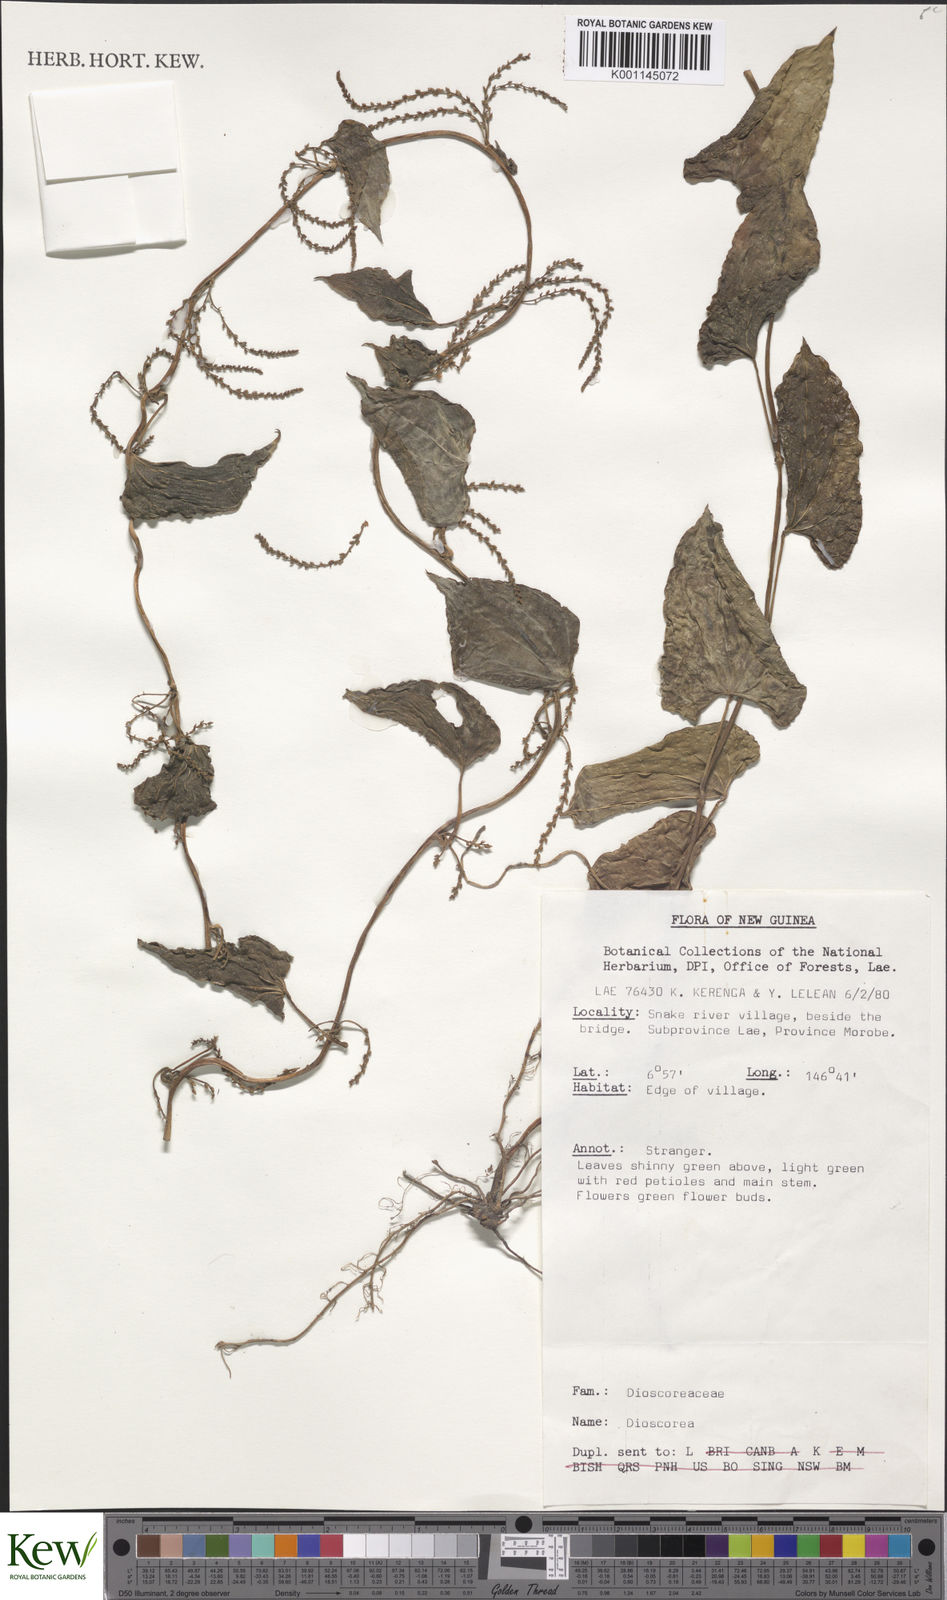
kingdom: Plantae
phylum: Tracheophyta
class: Liliopsida
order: Dioscoreales
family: Dioscoreaceae
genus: Dioscorea
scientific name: Dioscorea
